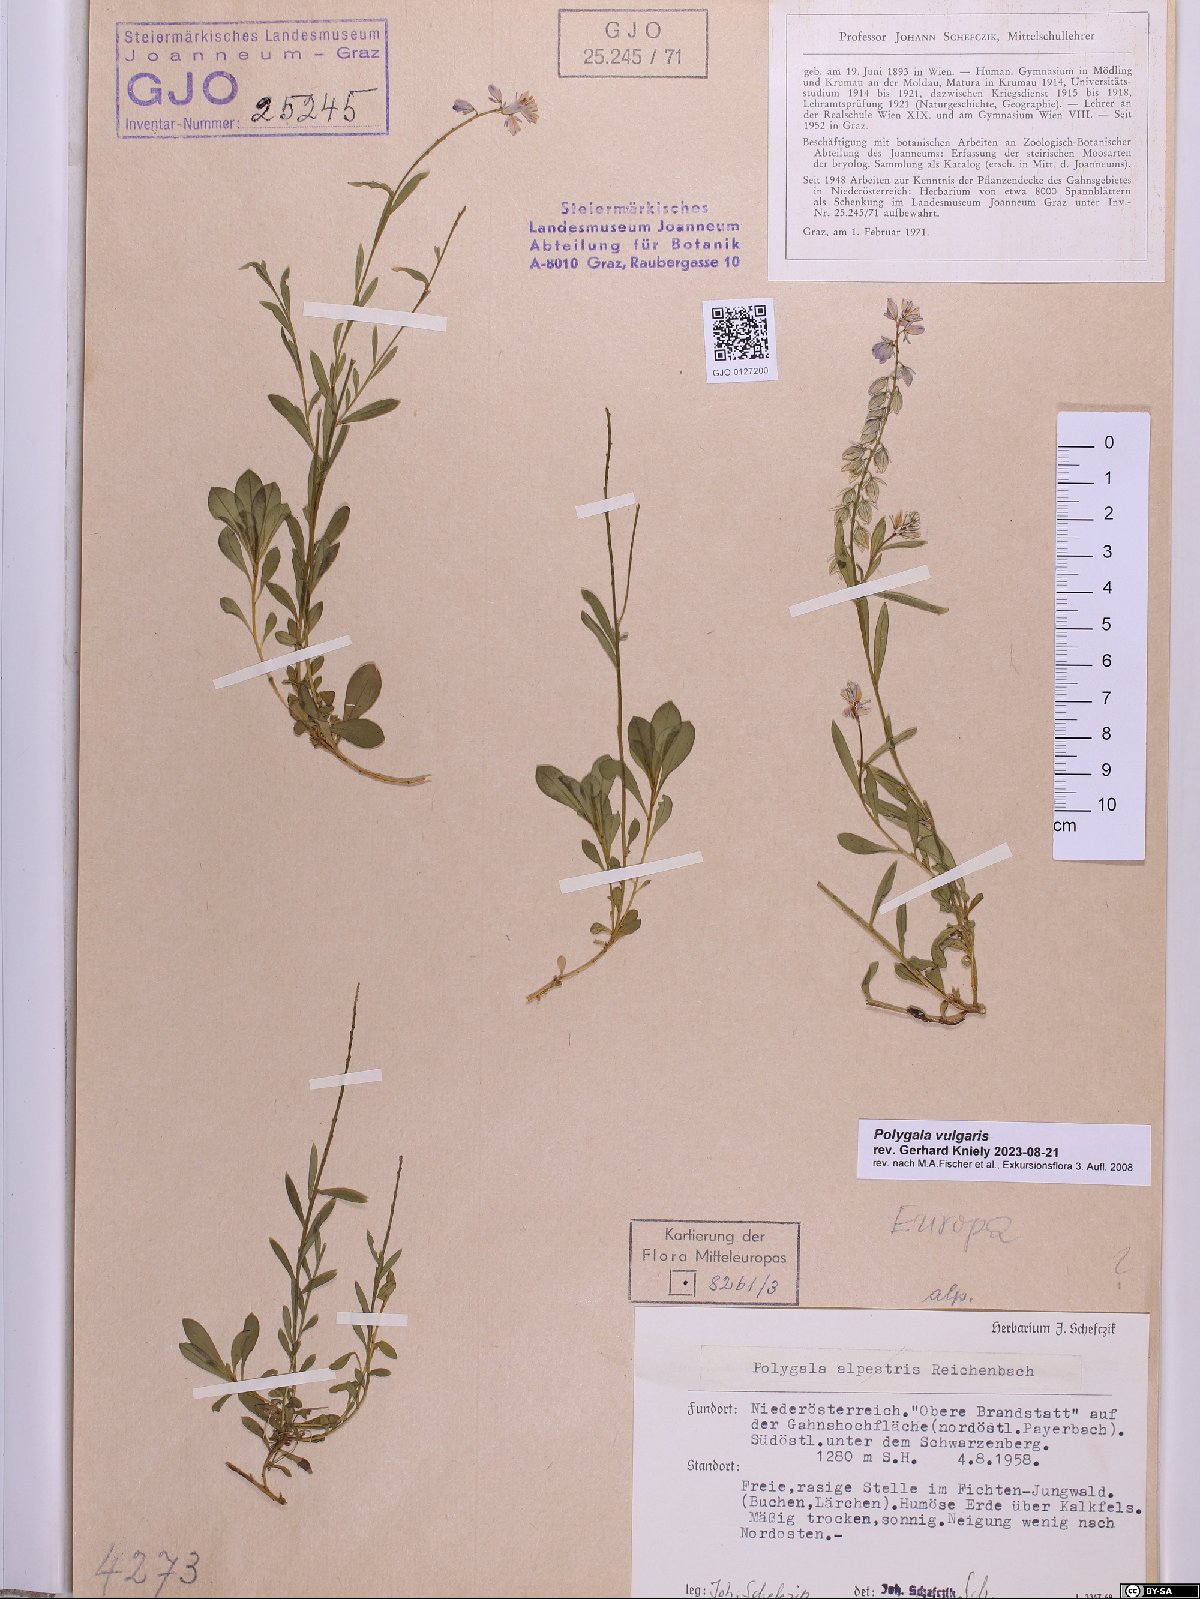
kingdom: Plantae
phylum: Tracheophyta
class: Magnoliopsida
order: Fabales
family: Polygalaceae
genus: Polygala
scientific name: Polygala vulgaris
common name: Common milkwort
